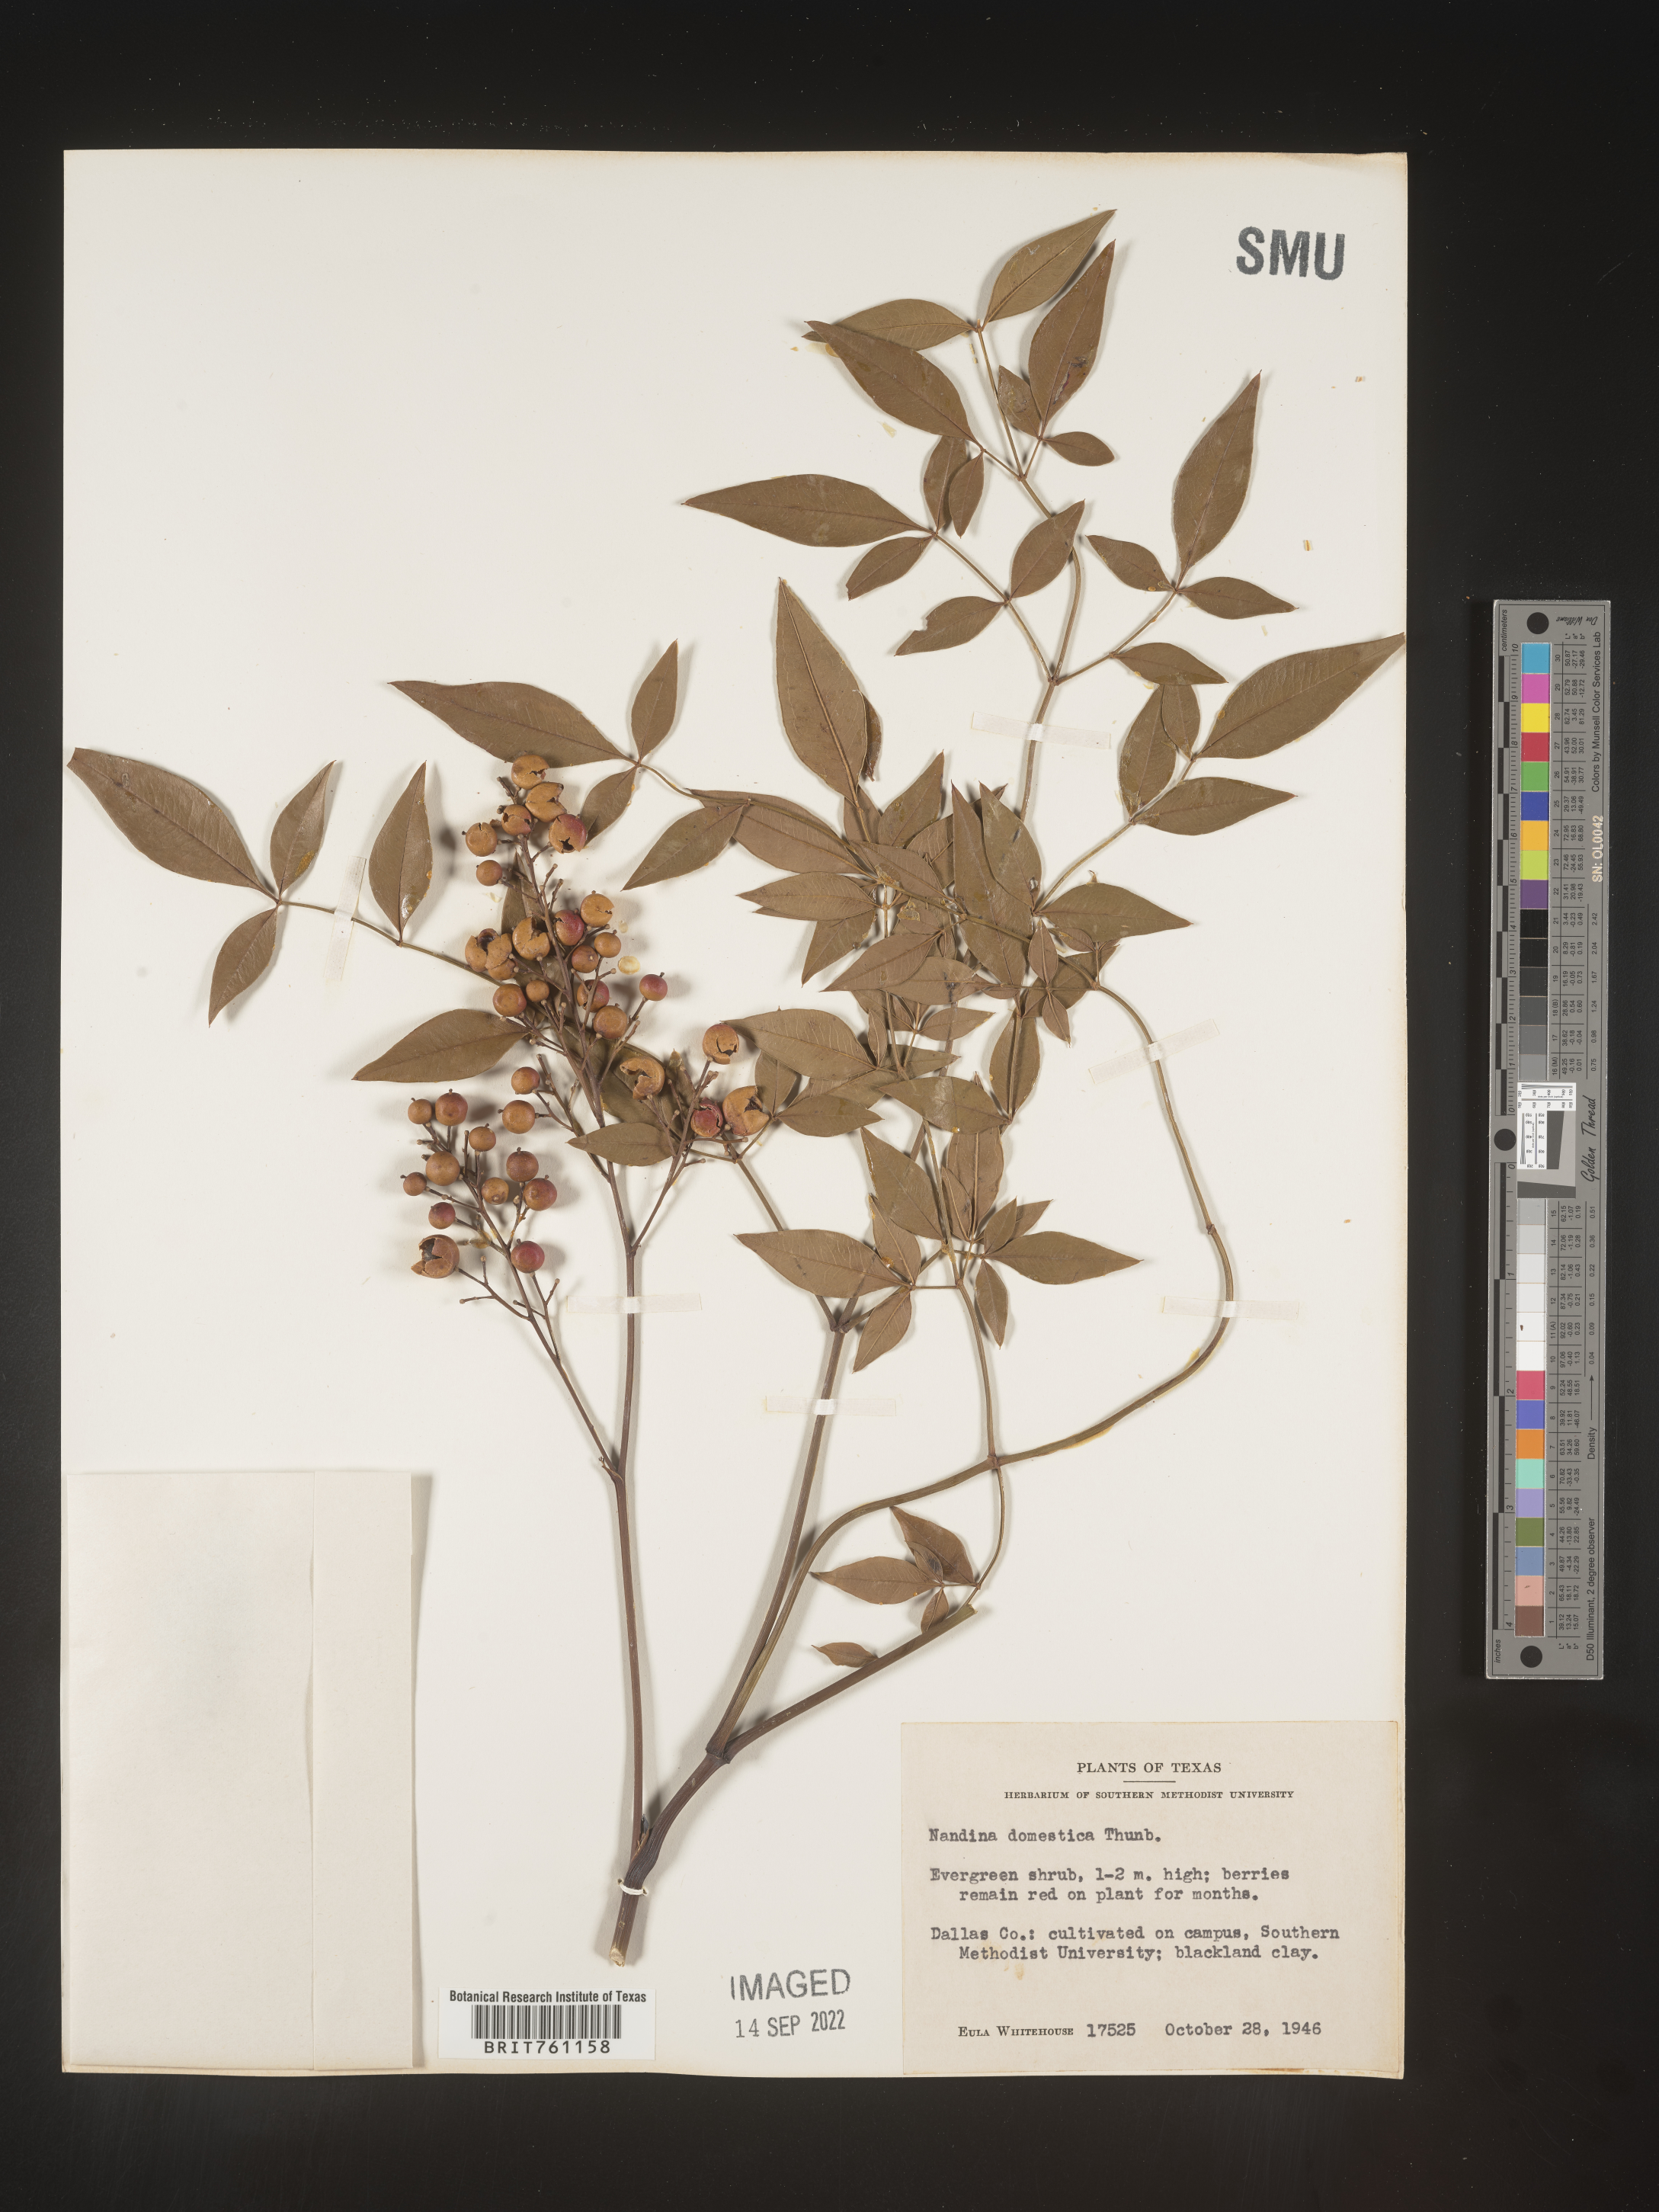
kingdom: Plantae
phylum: Tracheophyta
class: Magnoliopsida
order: Ranunculales
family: Berberidaceae
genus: Nandina
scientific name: Nandina
